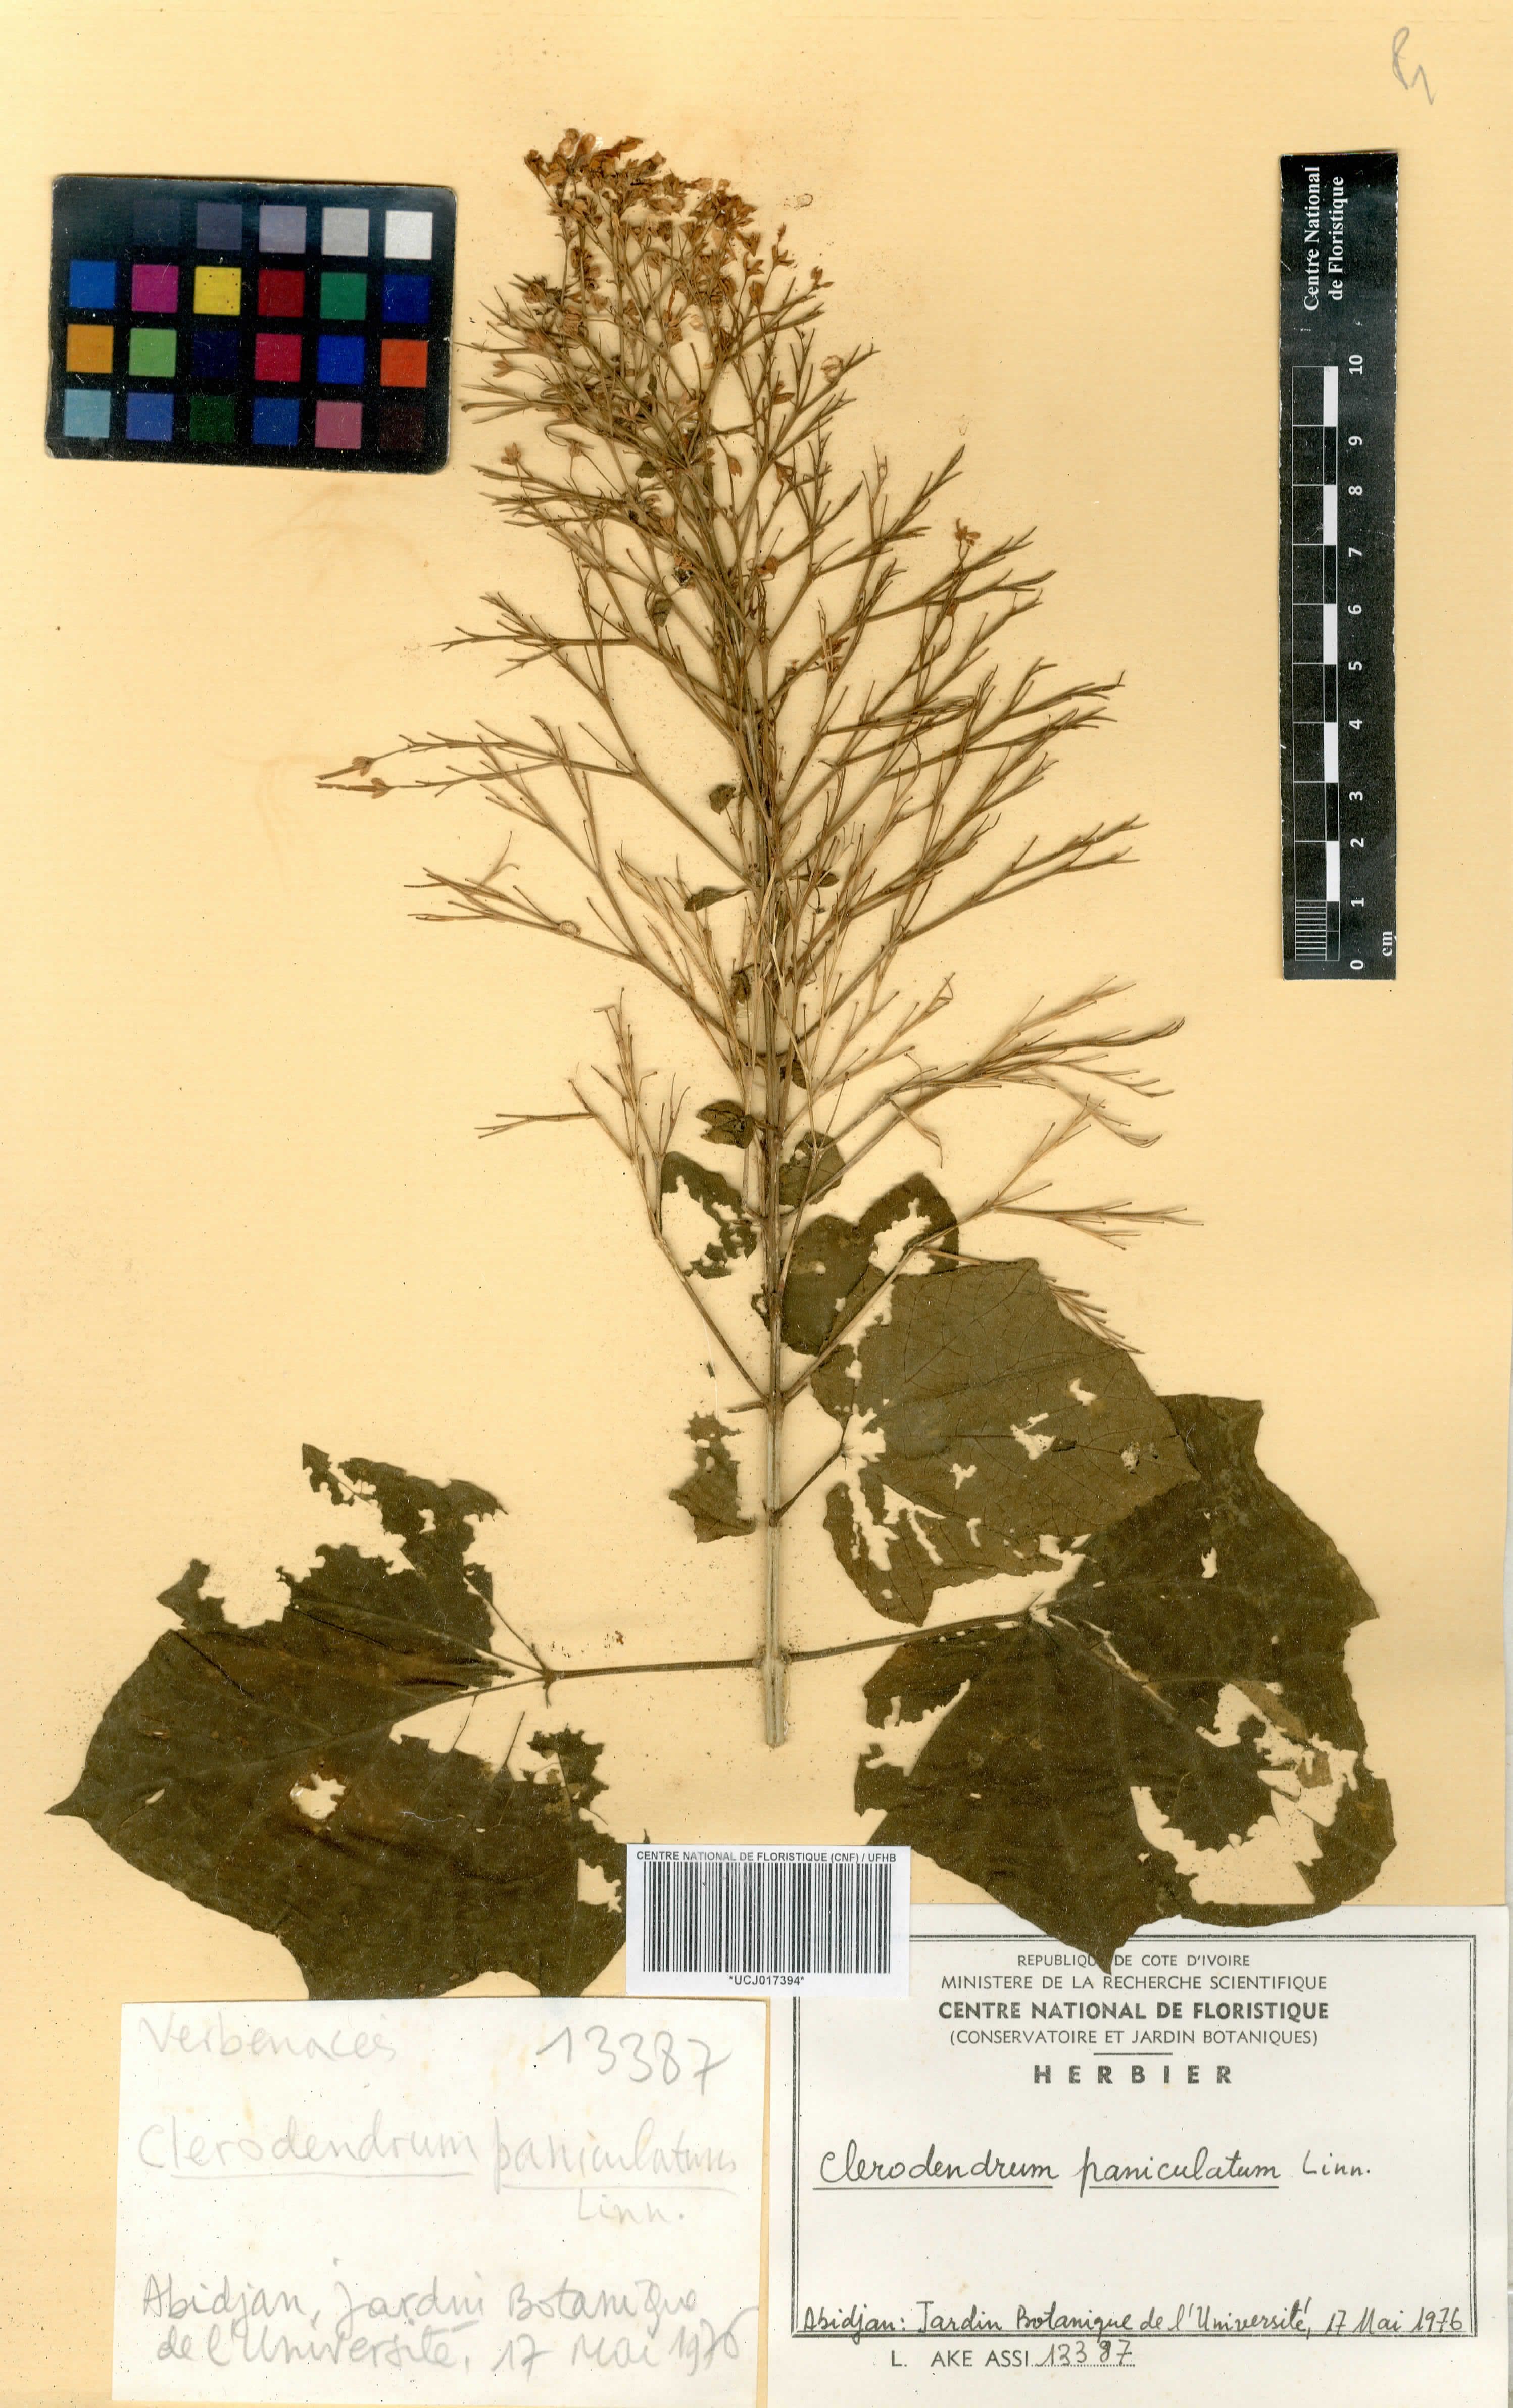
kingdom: Plantae
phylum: Tracheophyta
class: Magnoliopsida
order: Lamiales
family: Lamiaceae
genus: Clerodendrum
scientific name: Clerodendrum paniculatum
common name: Pagoda-flower
